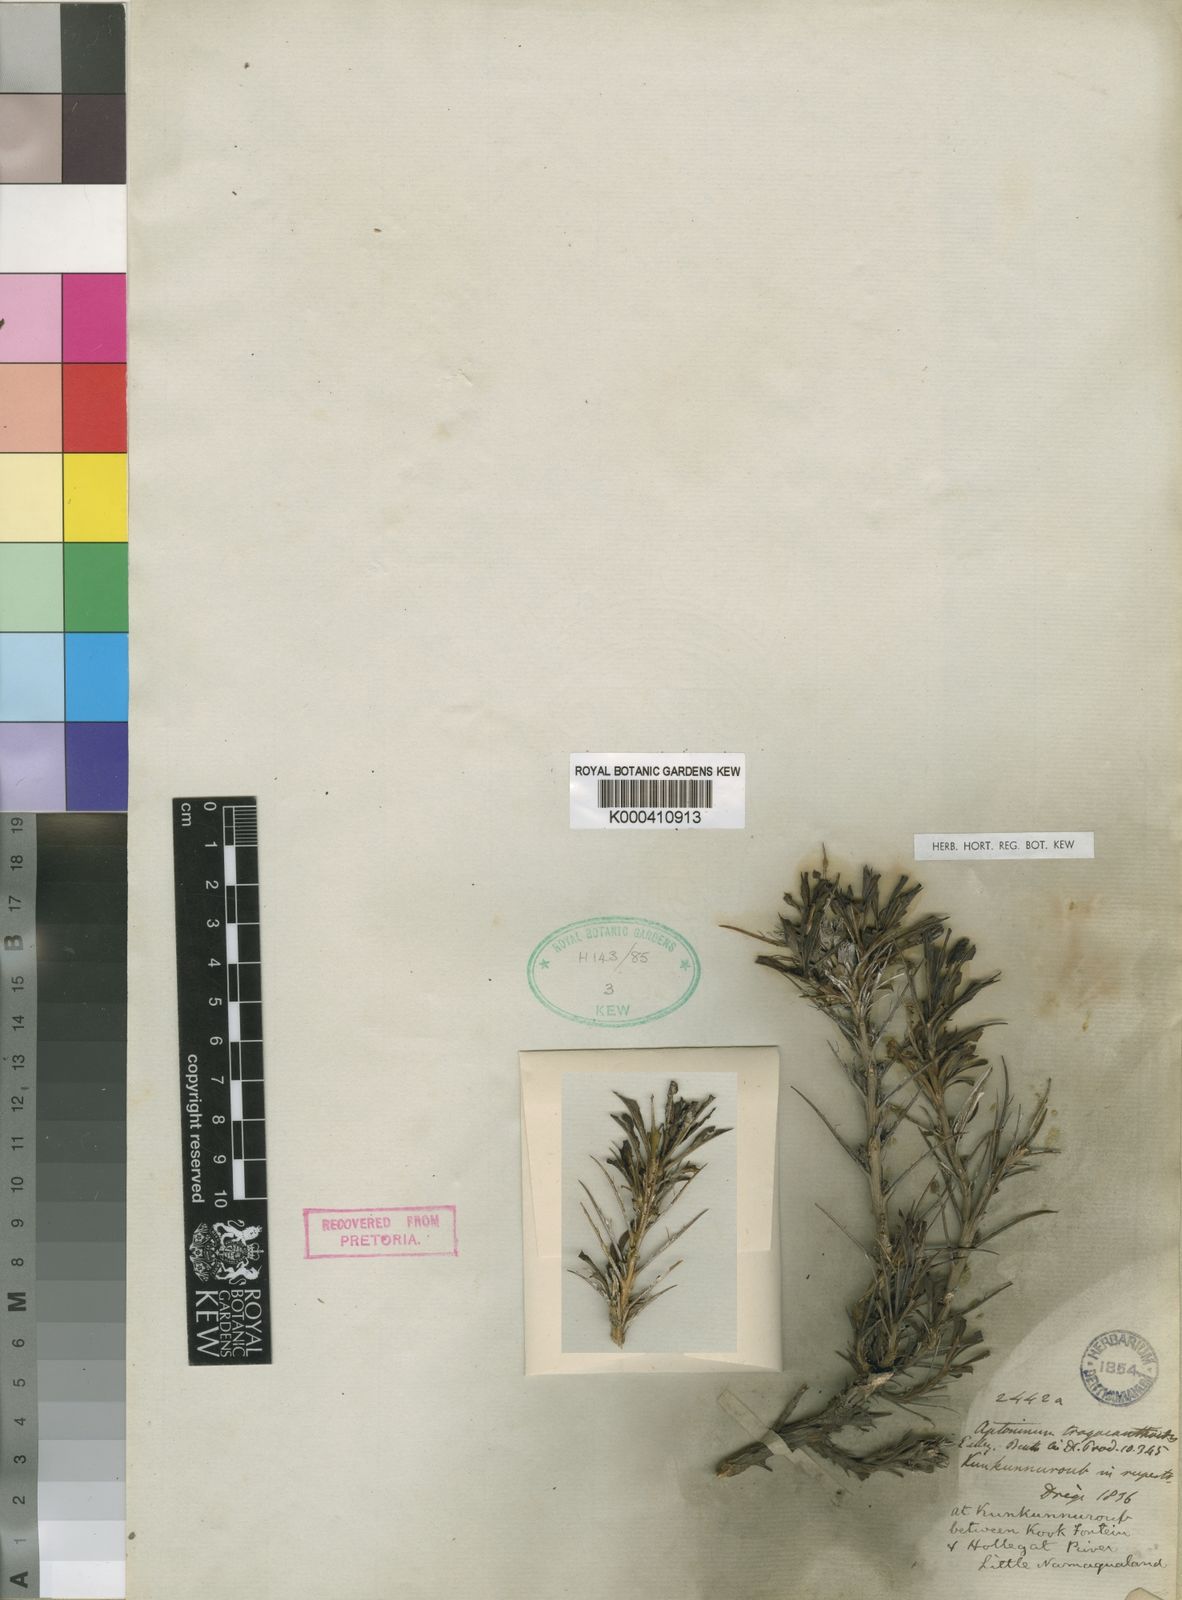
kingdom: Plantae
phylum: Tracheophyta
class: Magnoliopsida
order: Lamiales
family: Scrophulariaceae
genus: Aptosimum
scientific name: Aptosimum tragacanthoides
